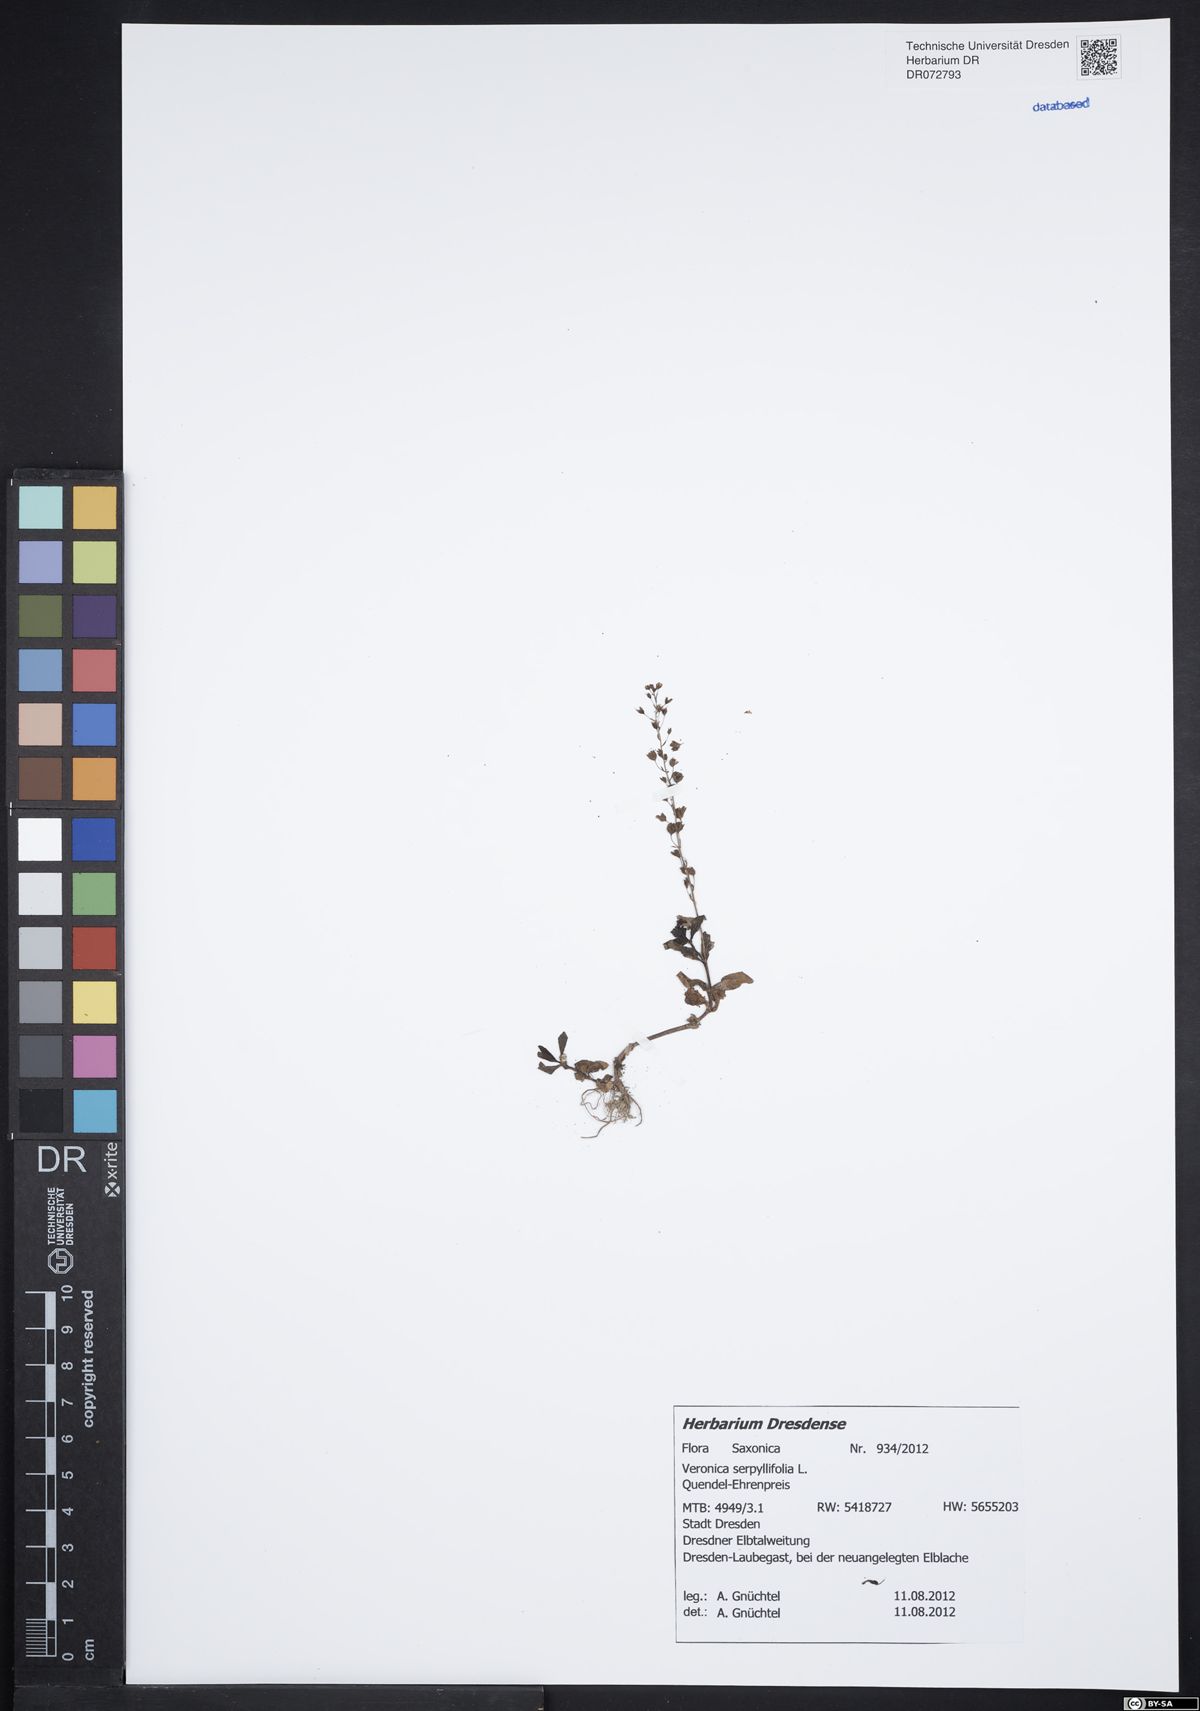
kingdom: Plantae
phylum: Tracheophyta
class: Magnoliopsida
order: Lamiales
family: Plantaginaceae
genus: Veronica
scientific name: Veronica serpyllifolia
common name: Thyme-leaved speedwell
